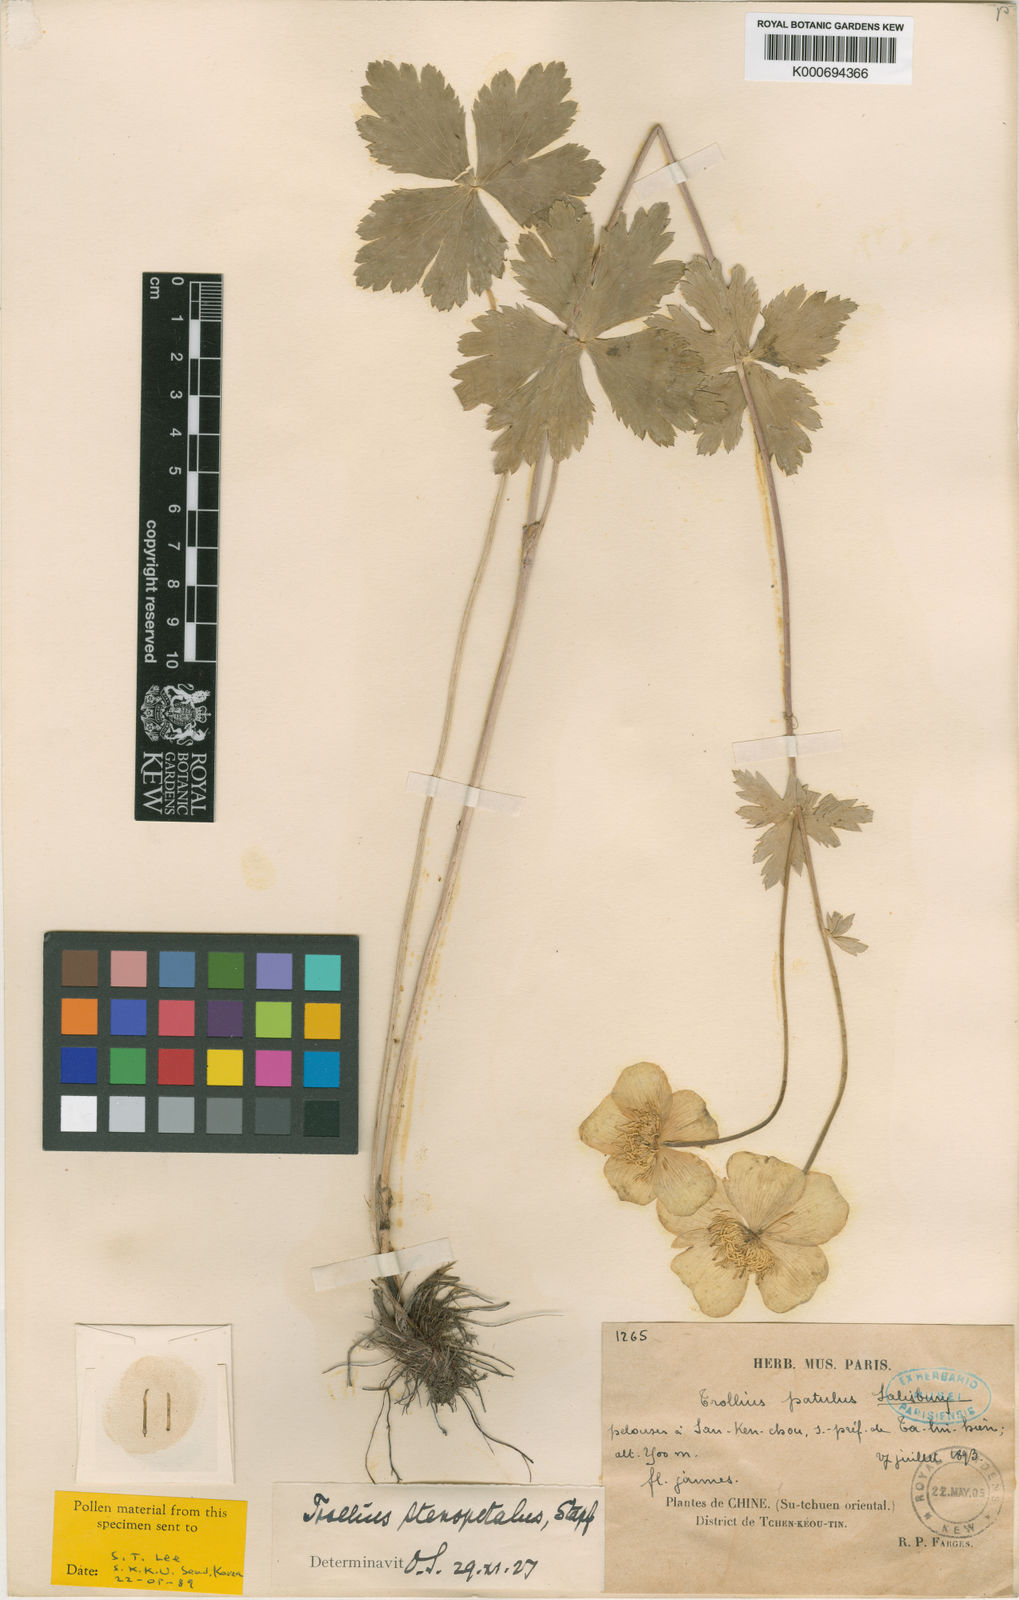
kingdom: Plantae
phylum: Tracheophyta
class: Magnoliopsida
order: Ranunculales
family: Ranunculaceae
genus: Trollius
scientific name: Trollius buddae
